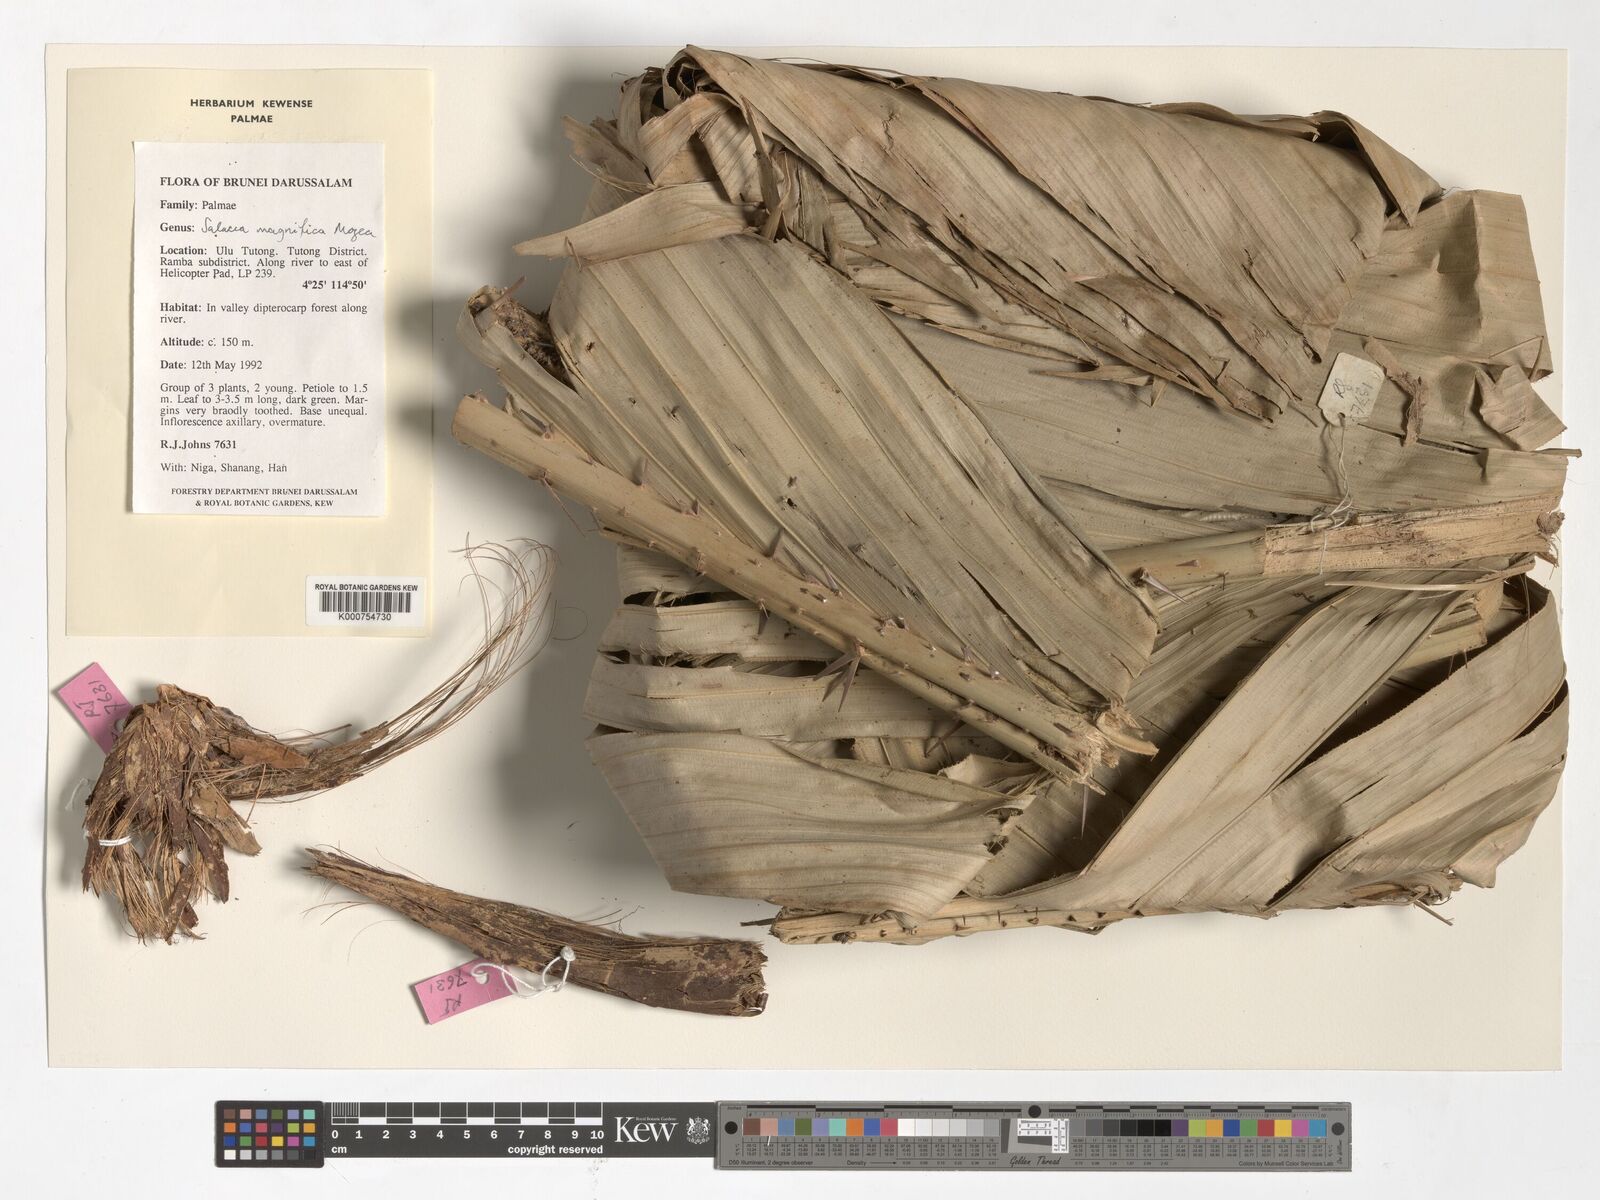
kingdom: Plantae
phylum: Tracheophyta
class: Liliopsida
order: Arecales
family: Arecaceae
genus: Salacca
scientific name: Salacca magnifica
